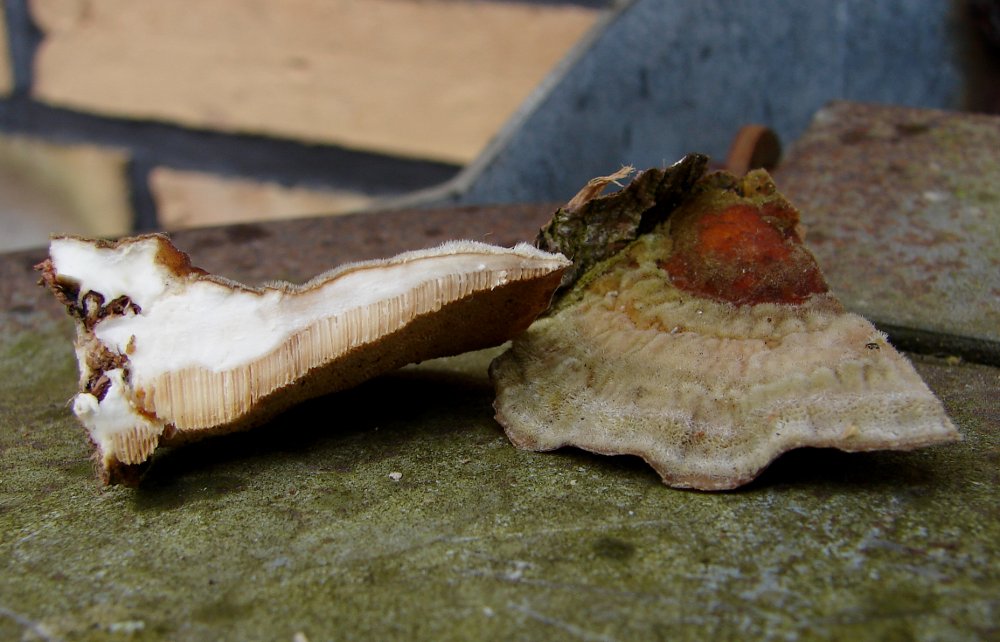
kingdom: Fungi
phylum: Basidiomycota
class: Agaricomycetes
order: Polyporales
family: Polyporaceae
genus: Trametes
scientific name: Trametes ochracea
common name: bæltet læderporesvamp
